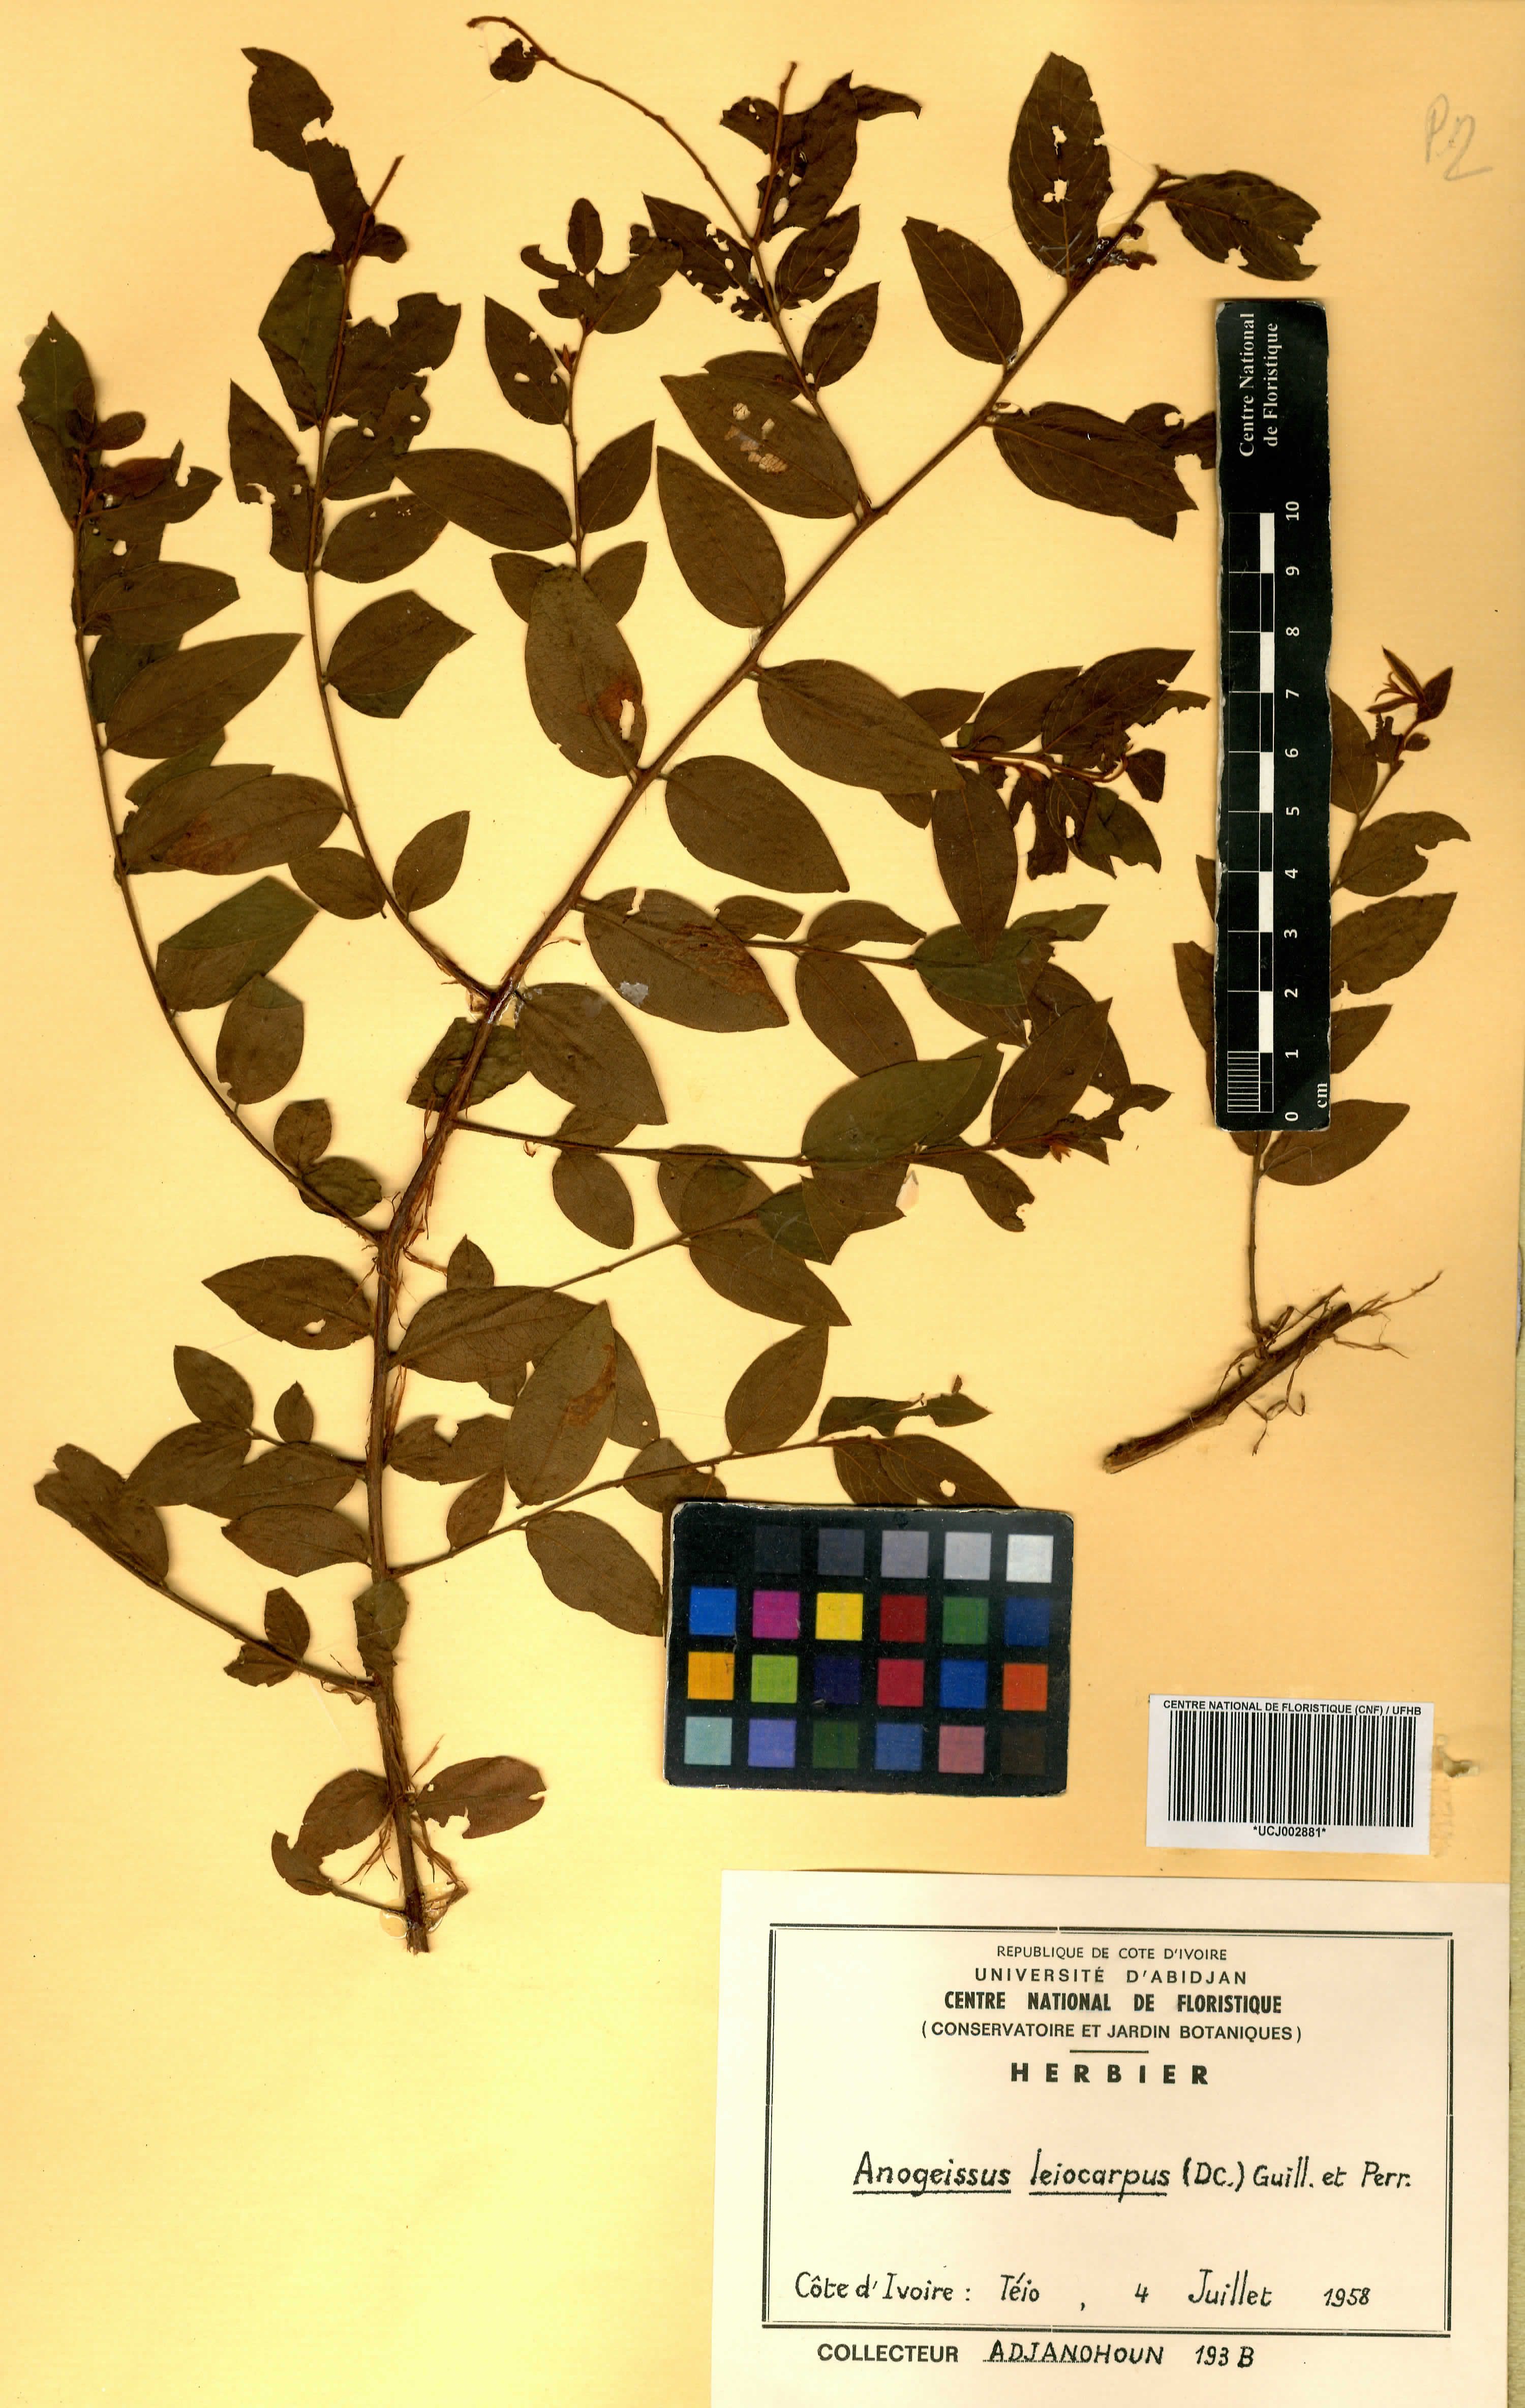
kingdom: Plantae
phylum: Tracheophyta
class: Magnoliopsida
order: Myrtales
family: Combretaceae
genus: Terminalia
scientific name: Terminalia leiocarpa
